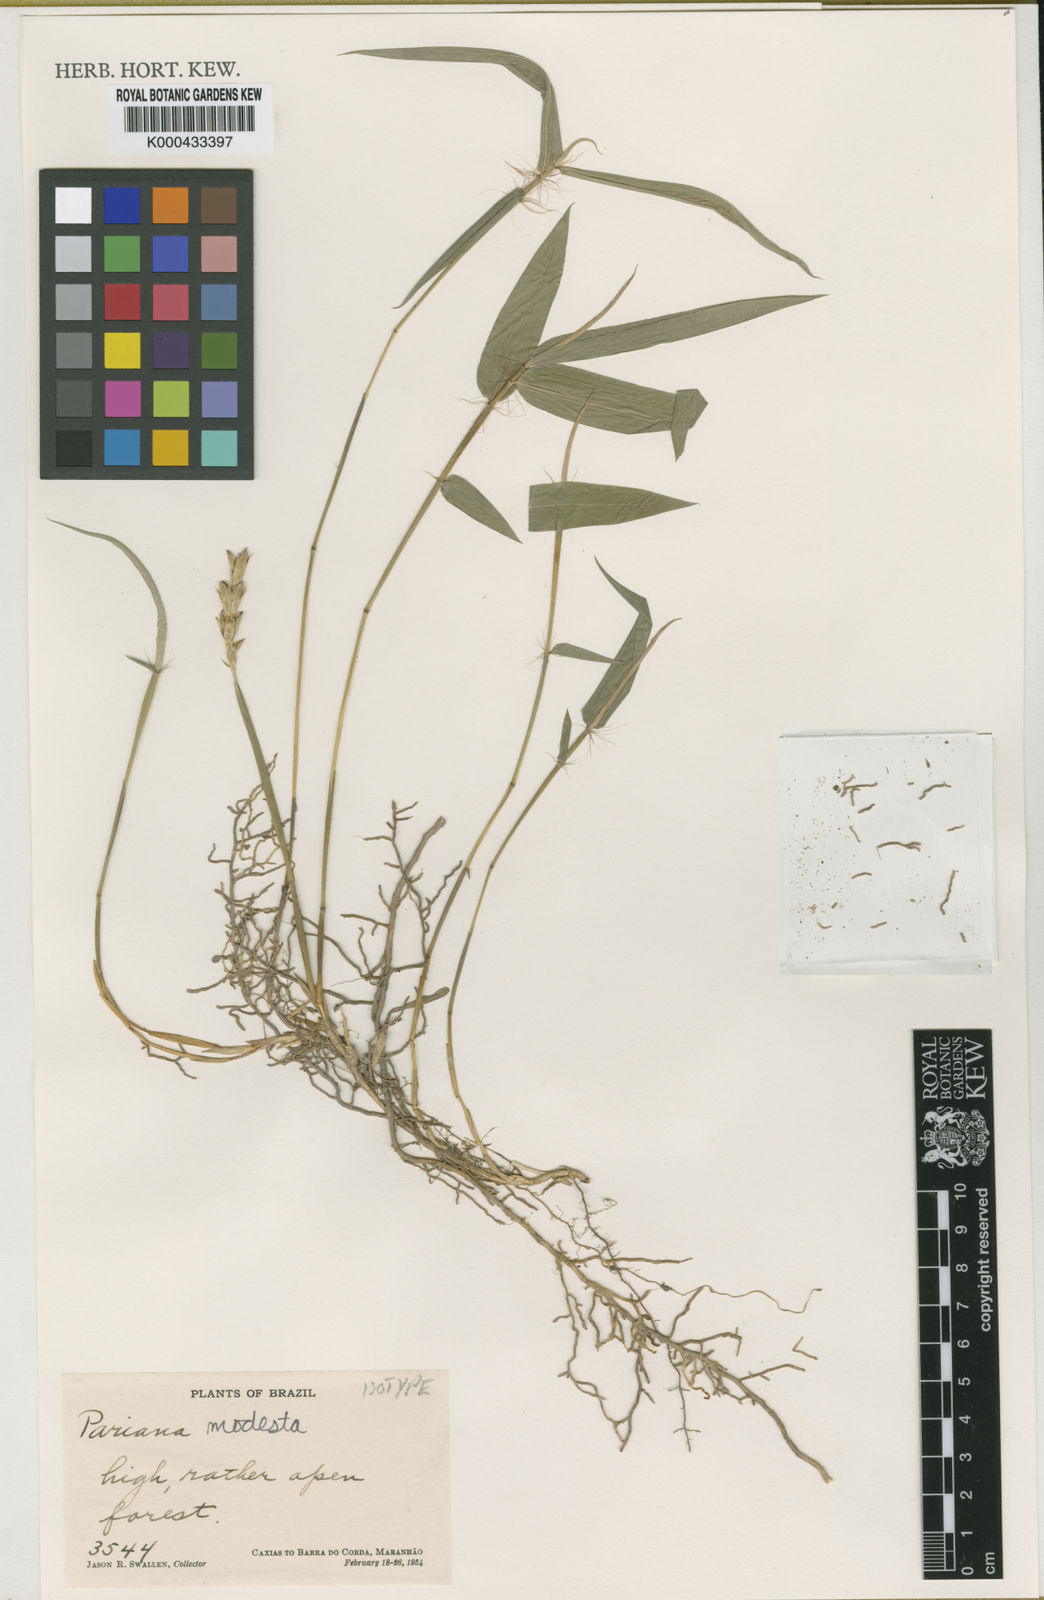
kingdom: Plantae
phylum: Tracheophyta
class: Liliopsida
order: Poales
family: Poaceae
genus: Pariana
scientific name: Pariana modesta
